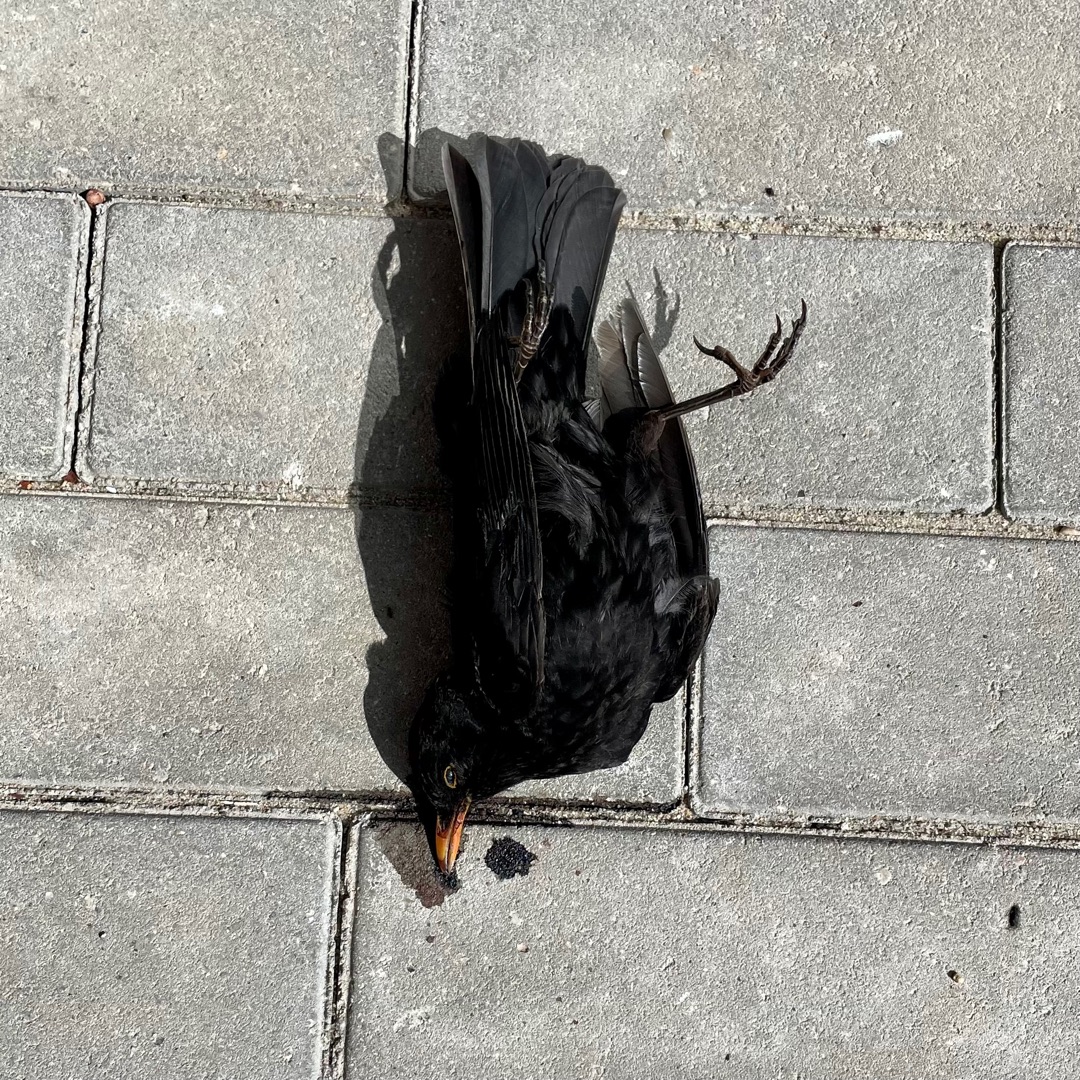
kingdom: Animalia
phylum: Chordata
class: Aves
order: Passeriformes
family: Turdidae
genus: Turdus
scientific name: Turdus merula
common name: Solsort
